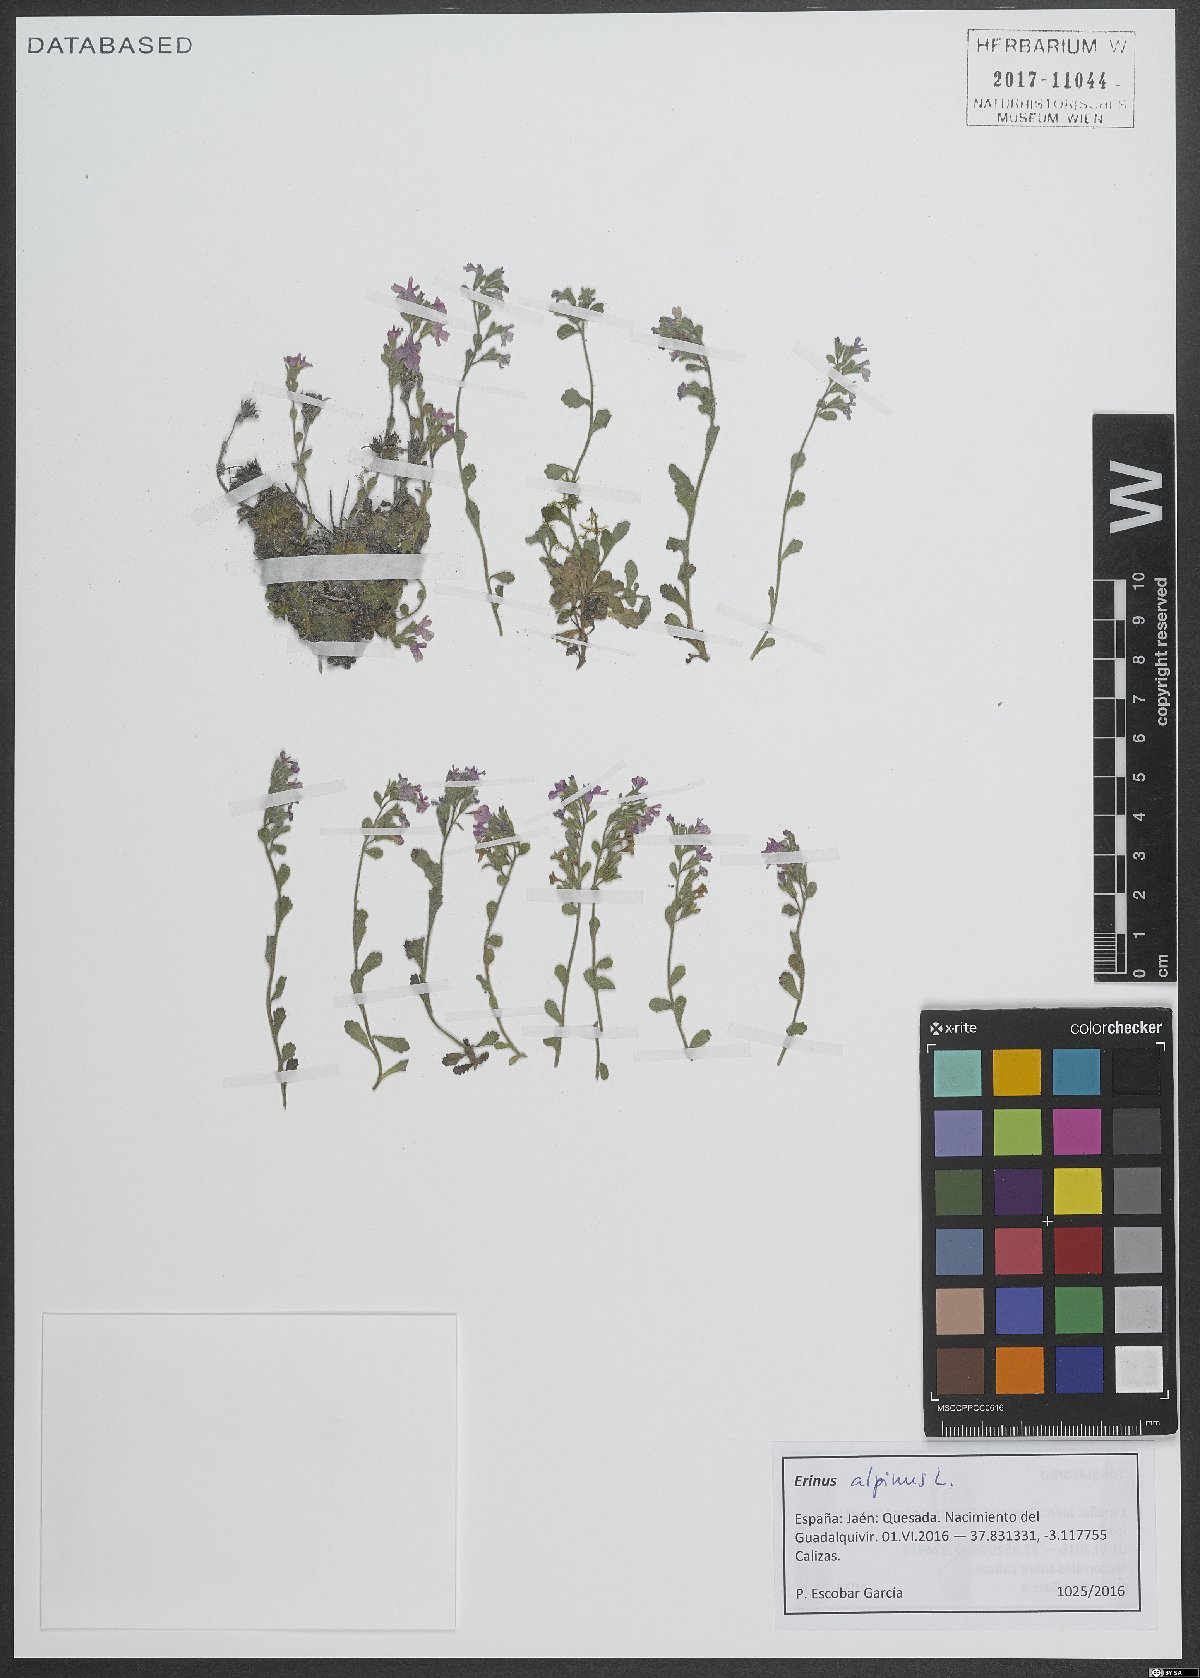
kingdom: Plantae
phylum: Tracheophyta
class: Magnoliopsida
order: Lamiales
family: Plantaginaceae
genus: Erinus
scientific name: Erinus alpinus
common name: Fairy foxglove
